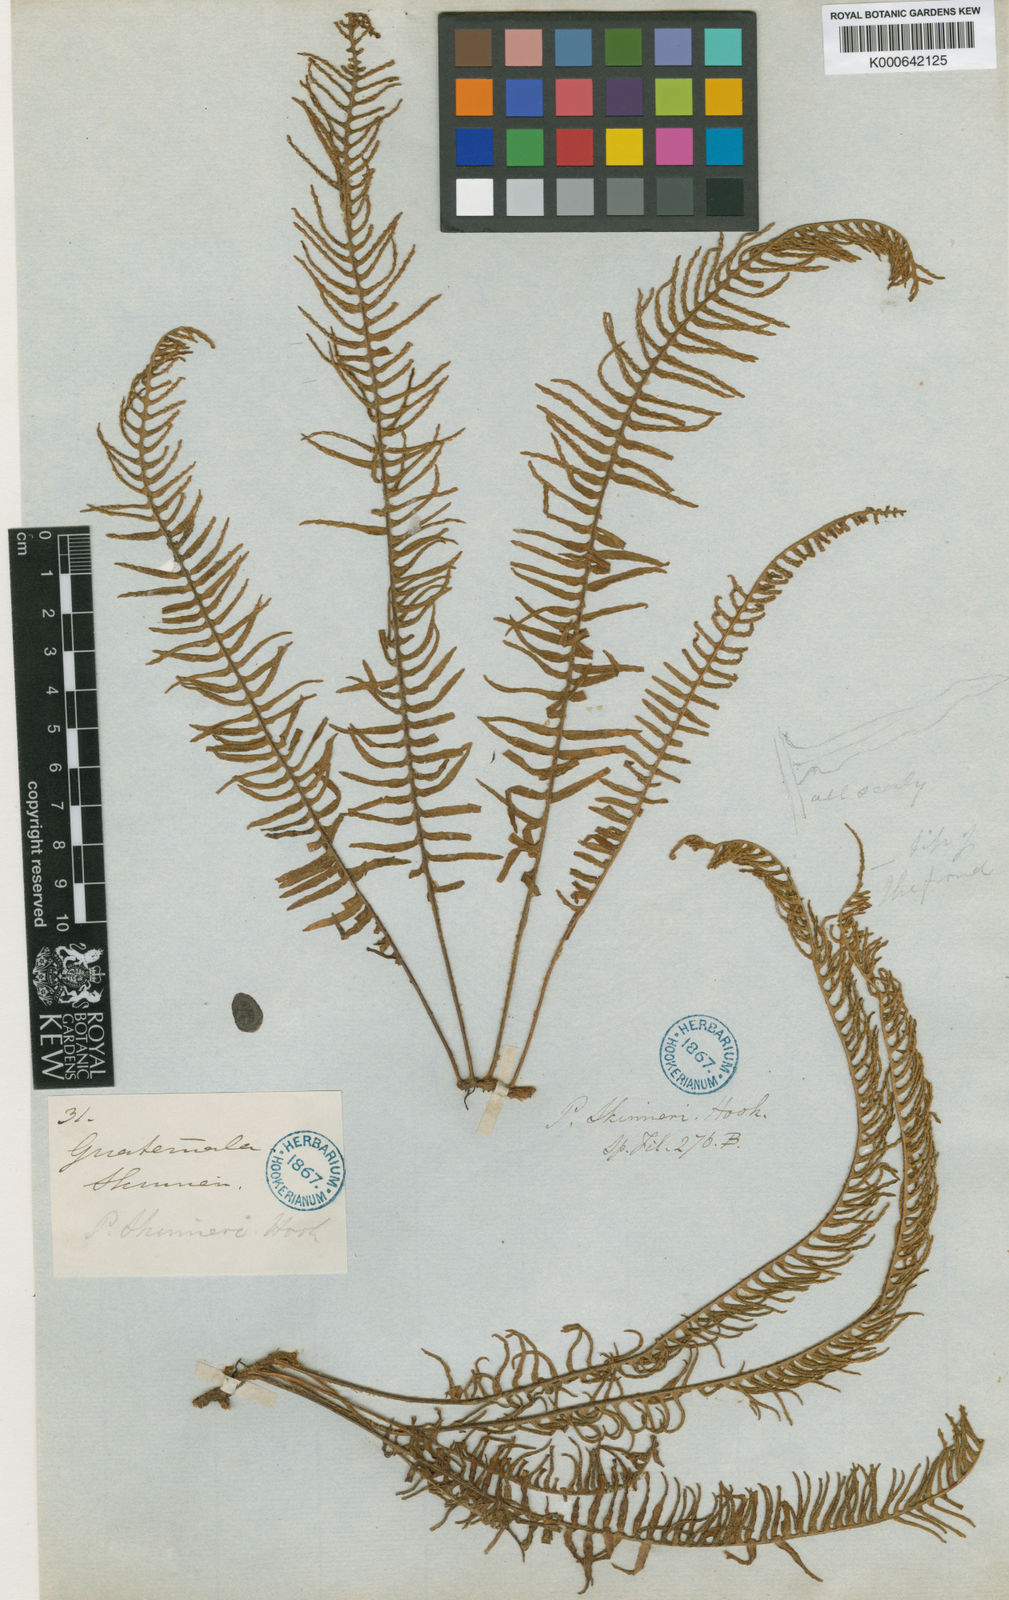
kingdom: Plantae
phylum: Tracheophyta
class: Polypodiopsida
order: Polypodiales
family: Polypodiaceae
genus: Polypodium
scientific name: Polypodium
